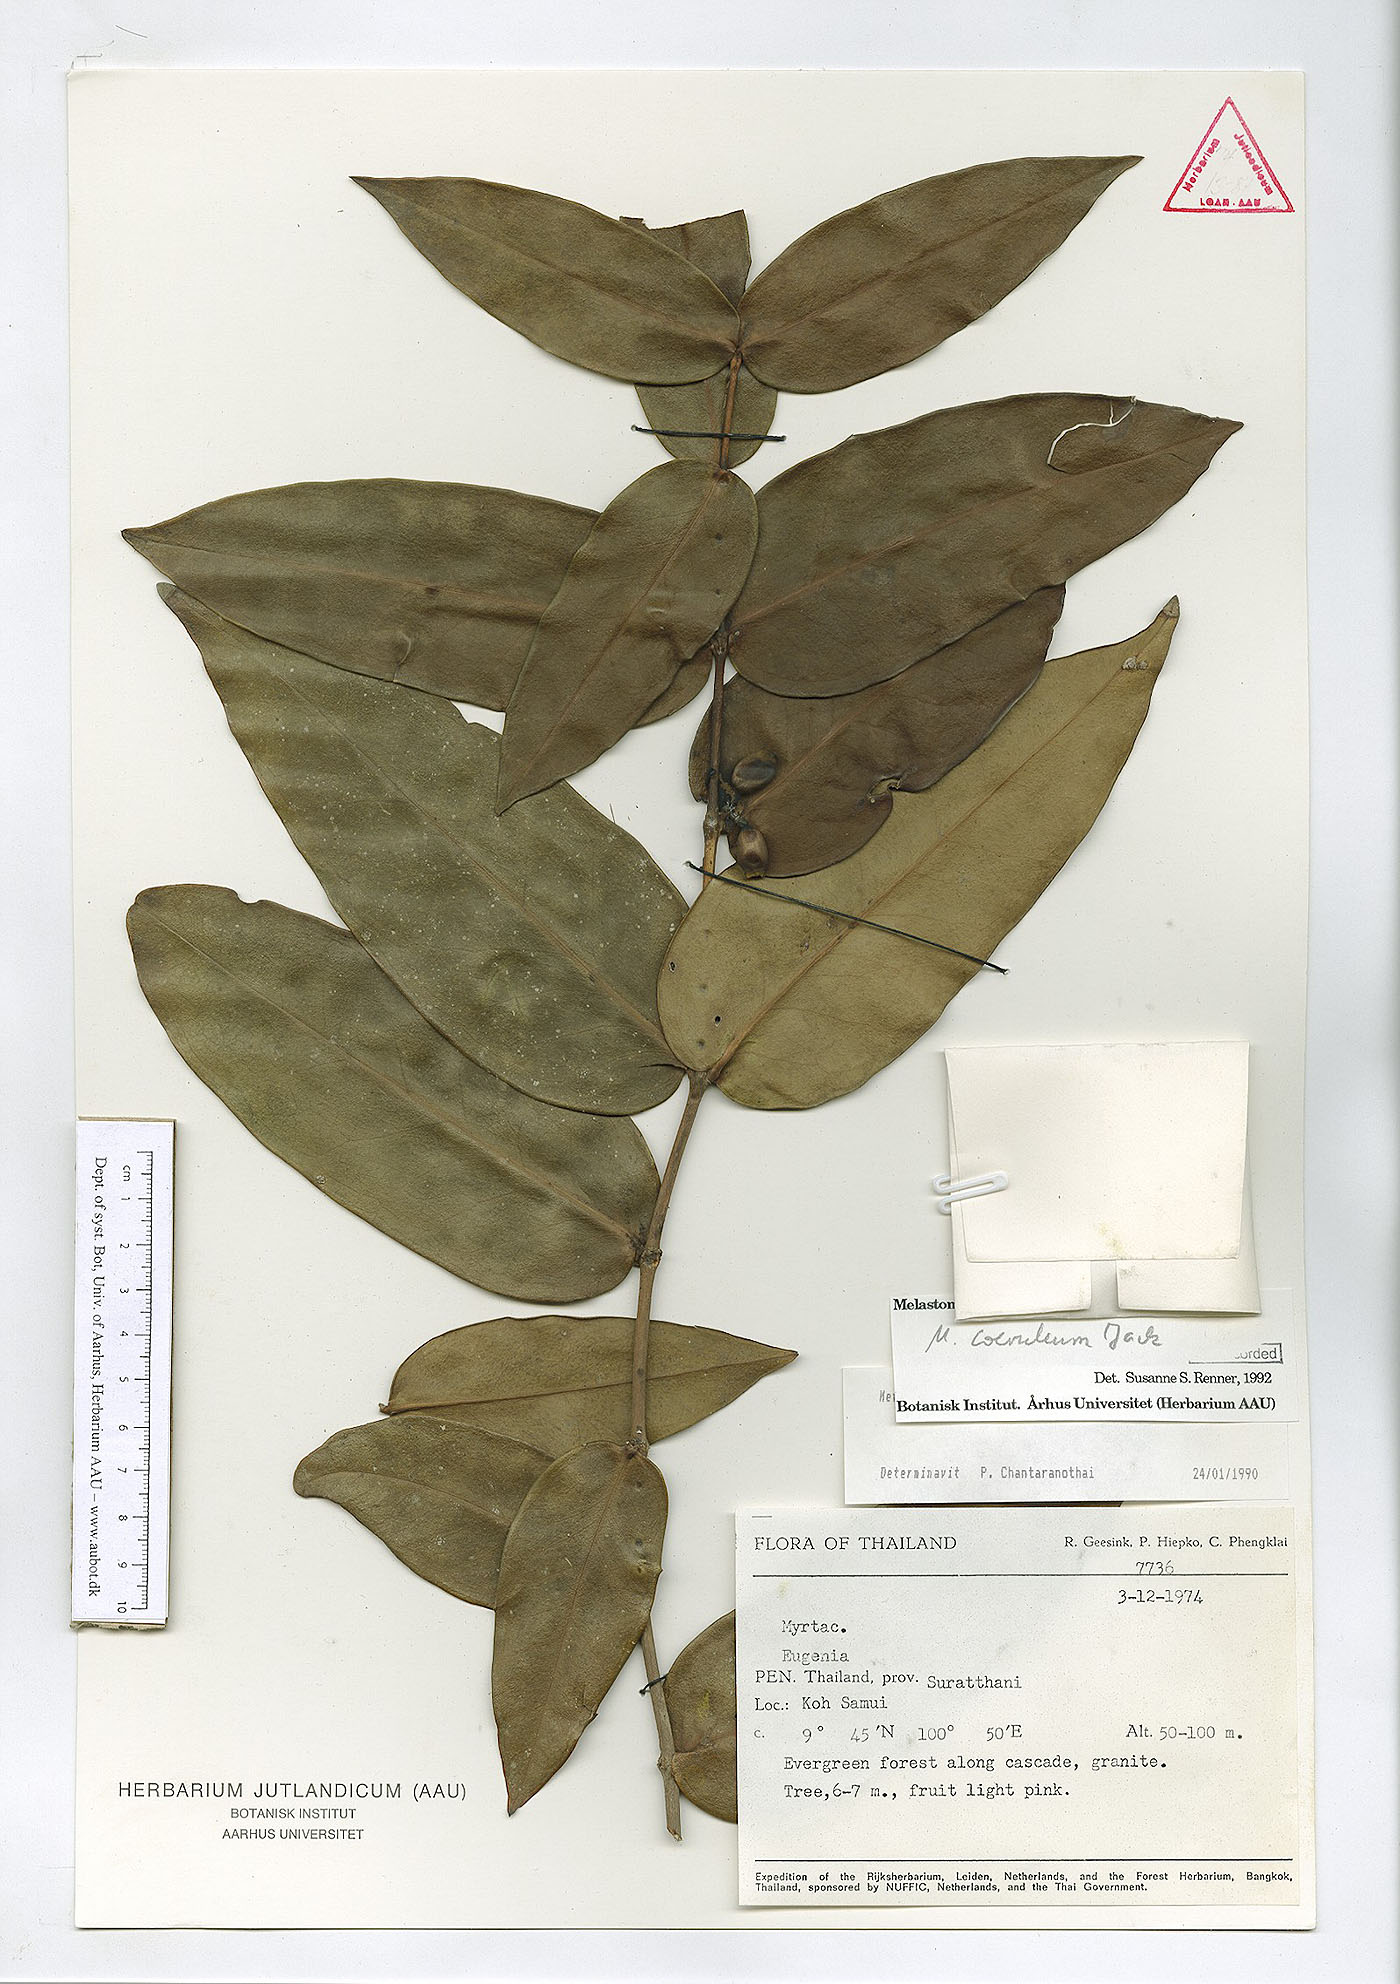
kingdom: Plantae
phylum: Tracheophyta
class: Magnoliopsida
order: Myrtales
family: Melastomataceae
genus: Memecylon
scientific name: Memecylon caeruleum
